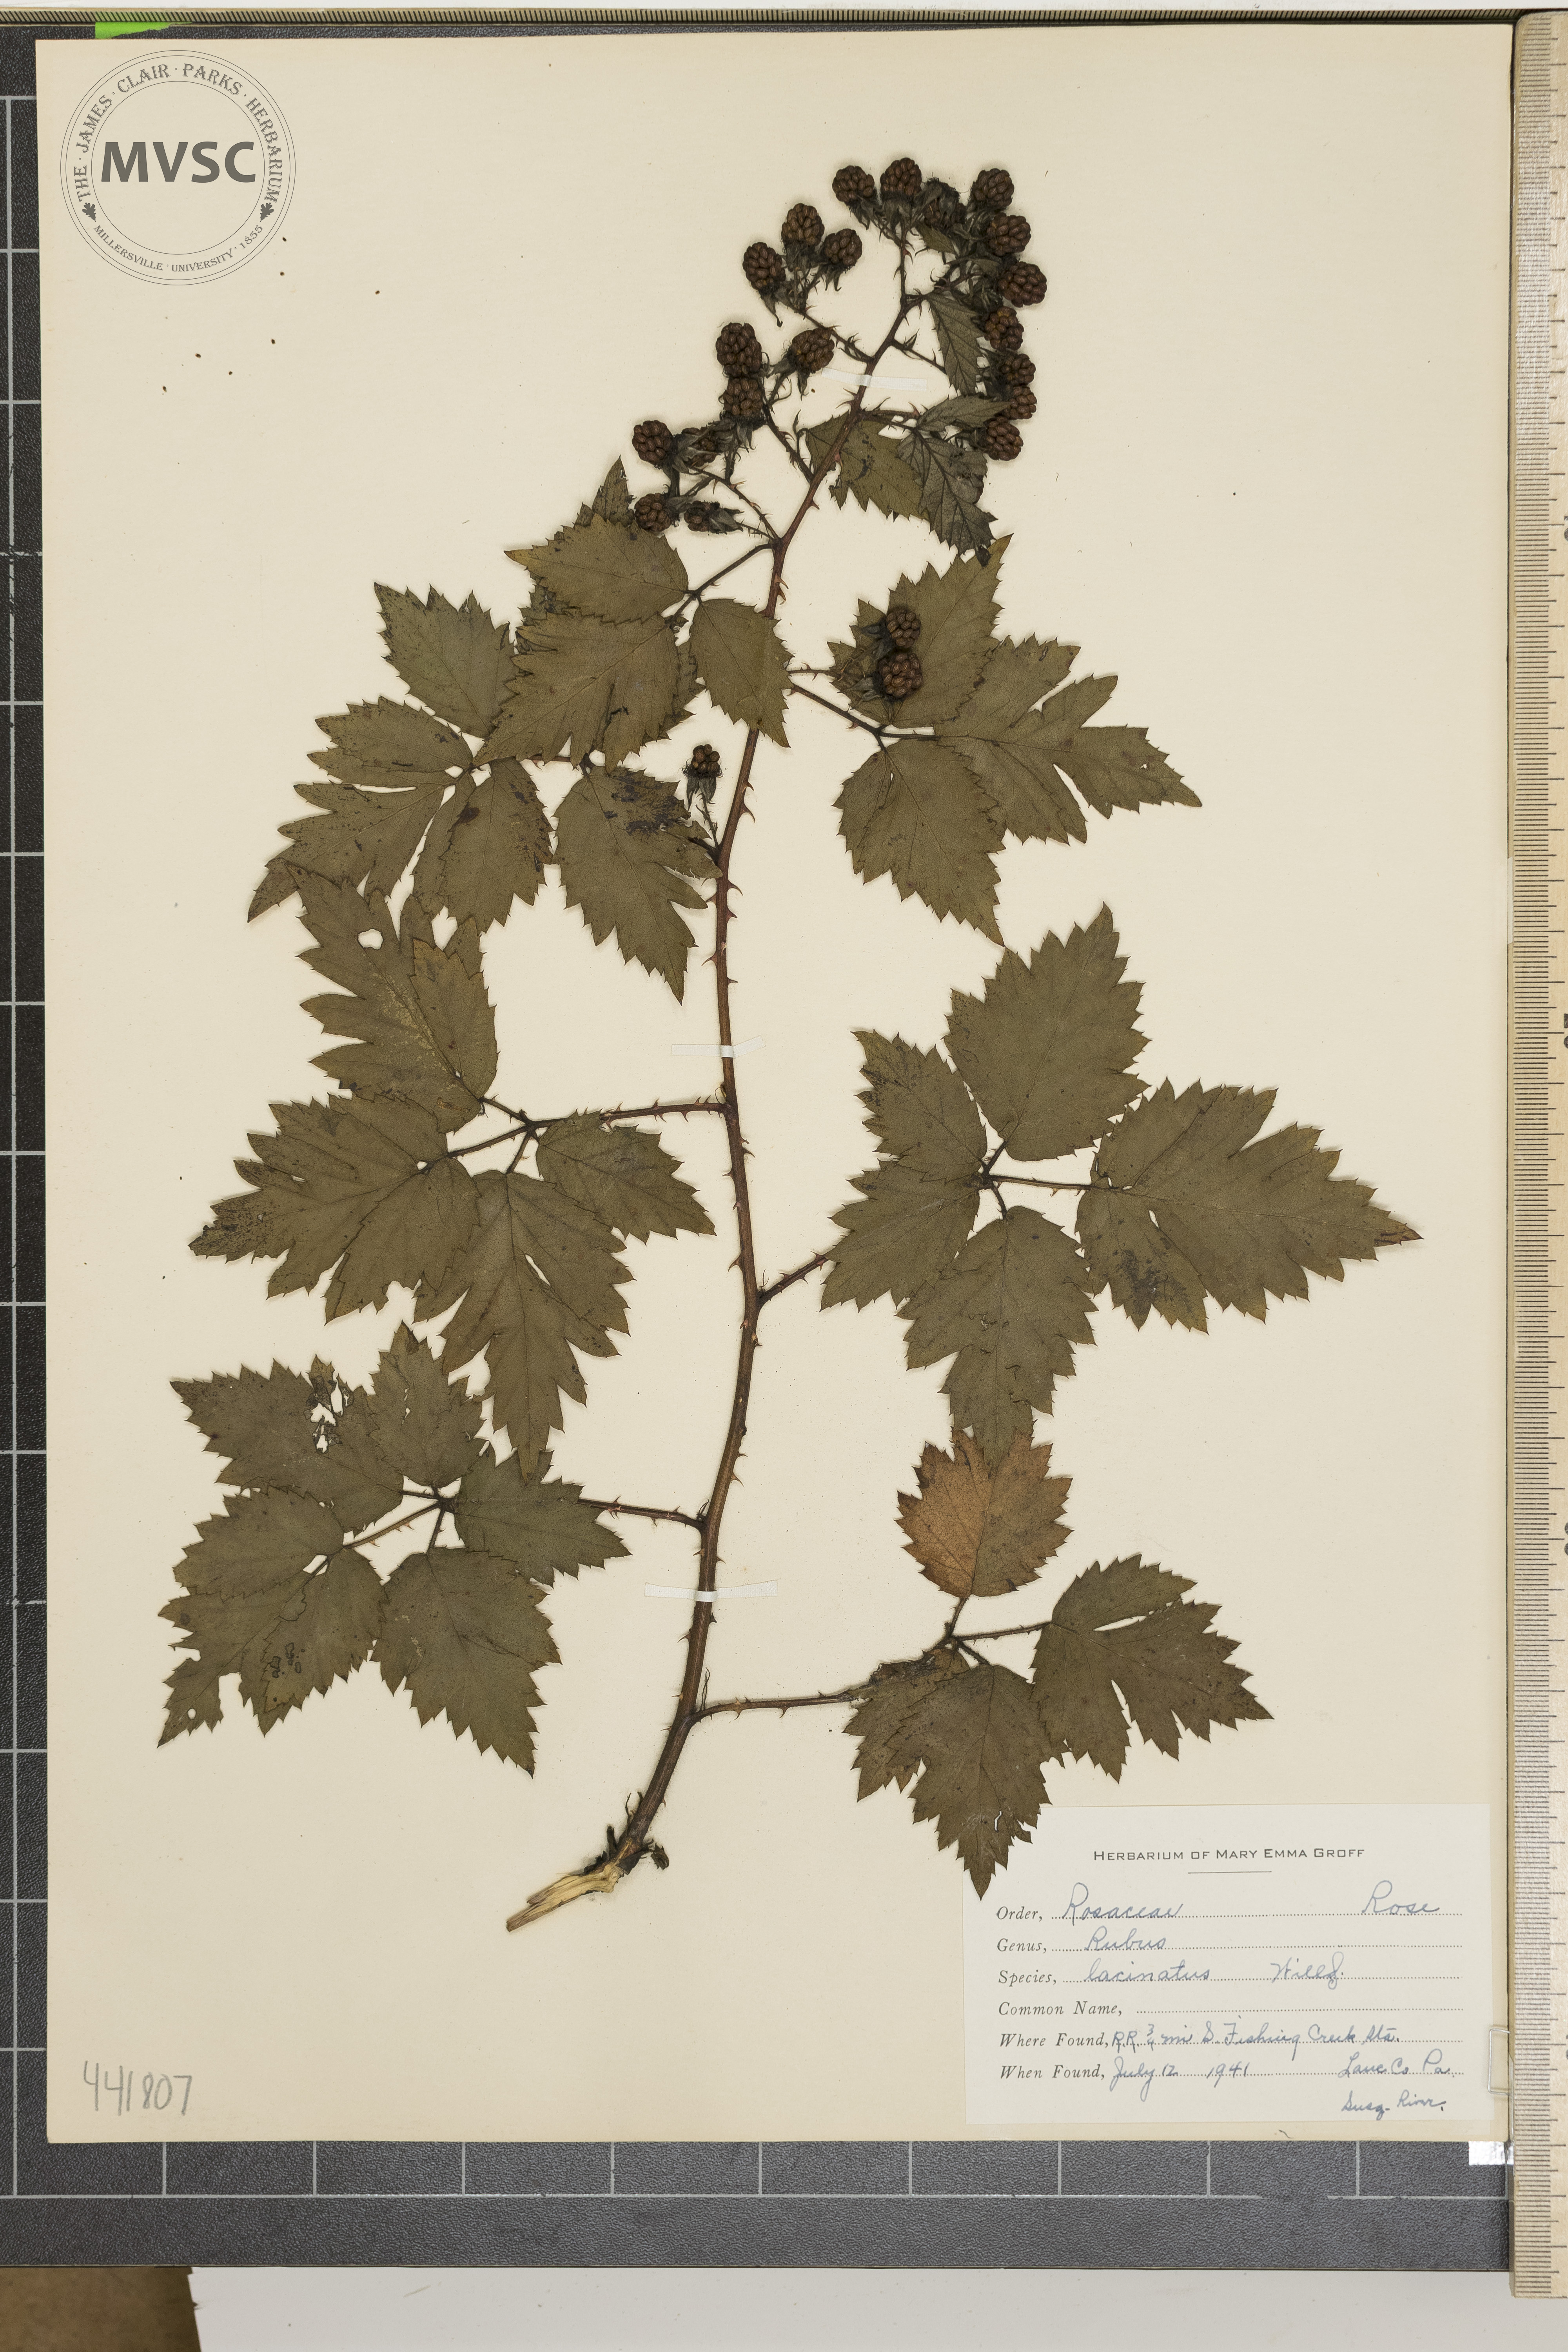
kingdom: Plantae
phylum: Tracheophyta
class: Magnoliopsida
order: Rosales
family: Rosaceae
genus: Rubus
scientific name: Rubus laciniatus
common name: Evergreen blackberry
